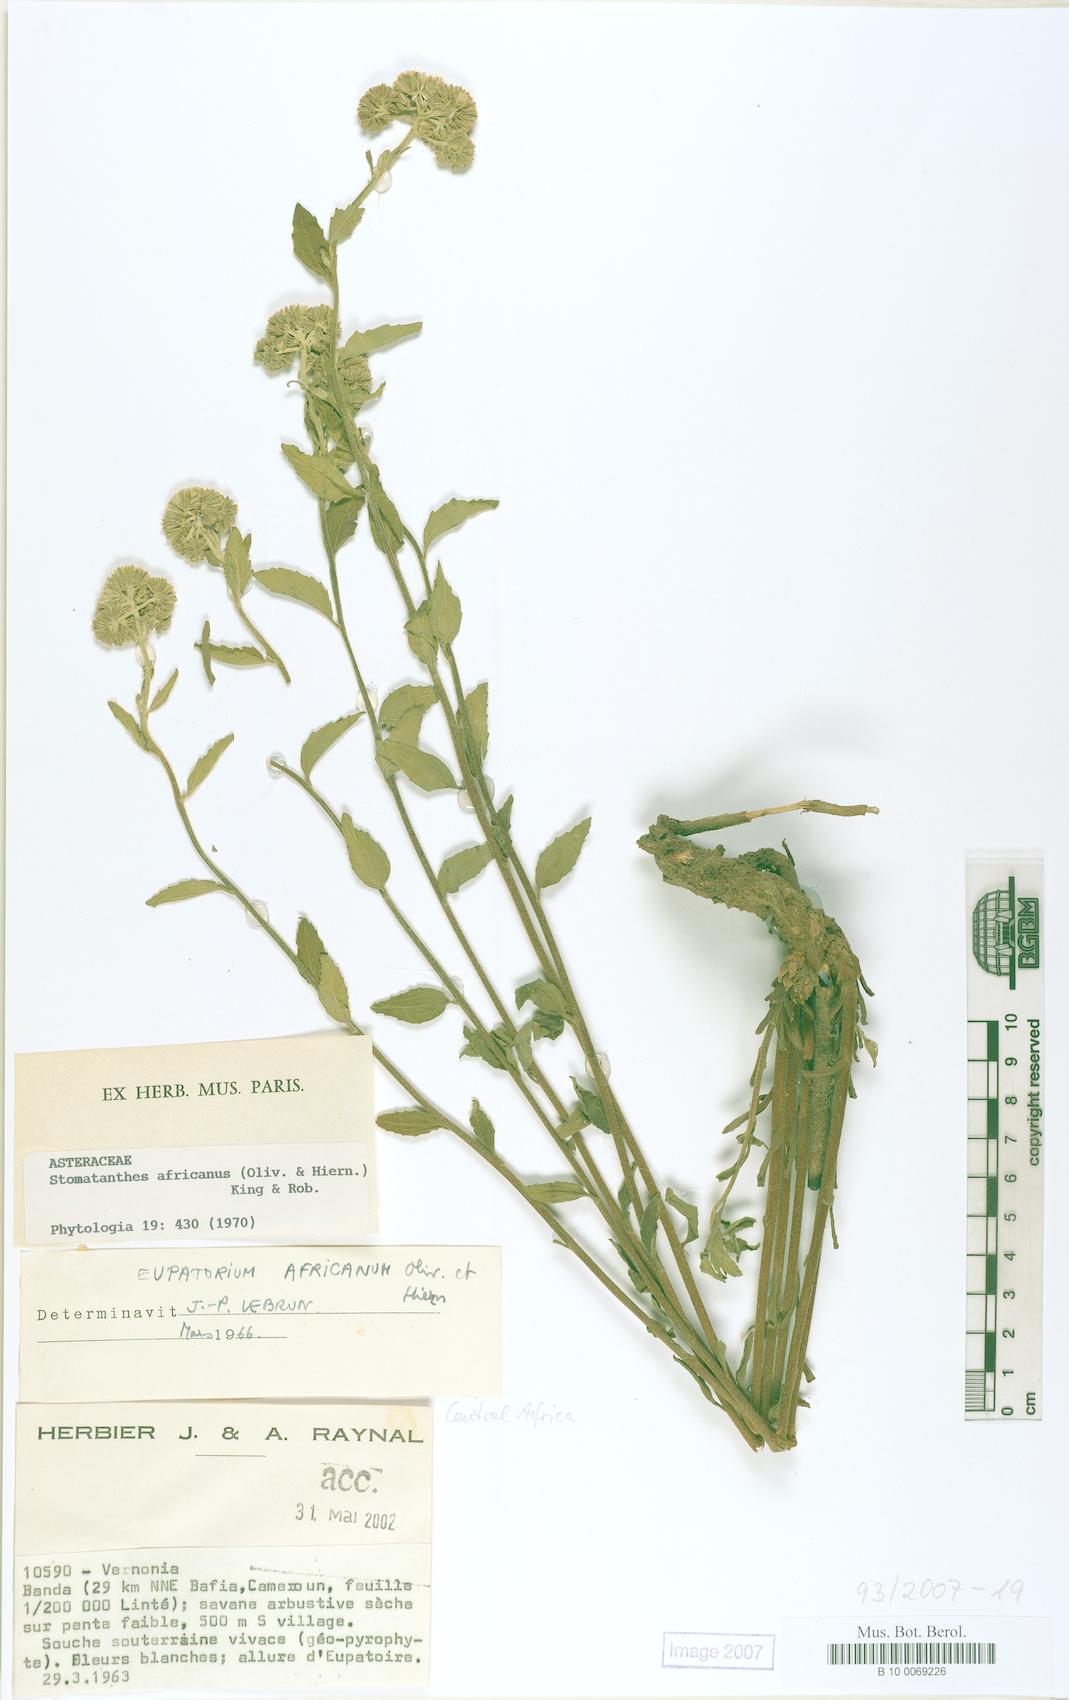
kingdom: Plantae
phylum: Tracheophyta
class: Magnoliopsida
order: Asterales
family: Asteraceae
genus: Stomatanthes
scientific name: Stomatanthes africanus
